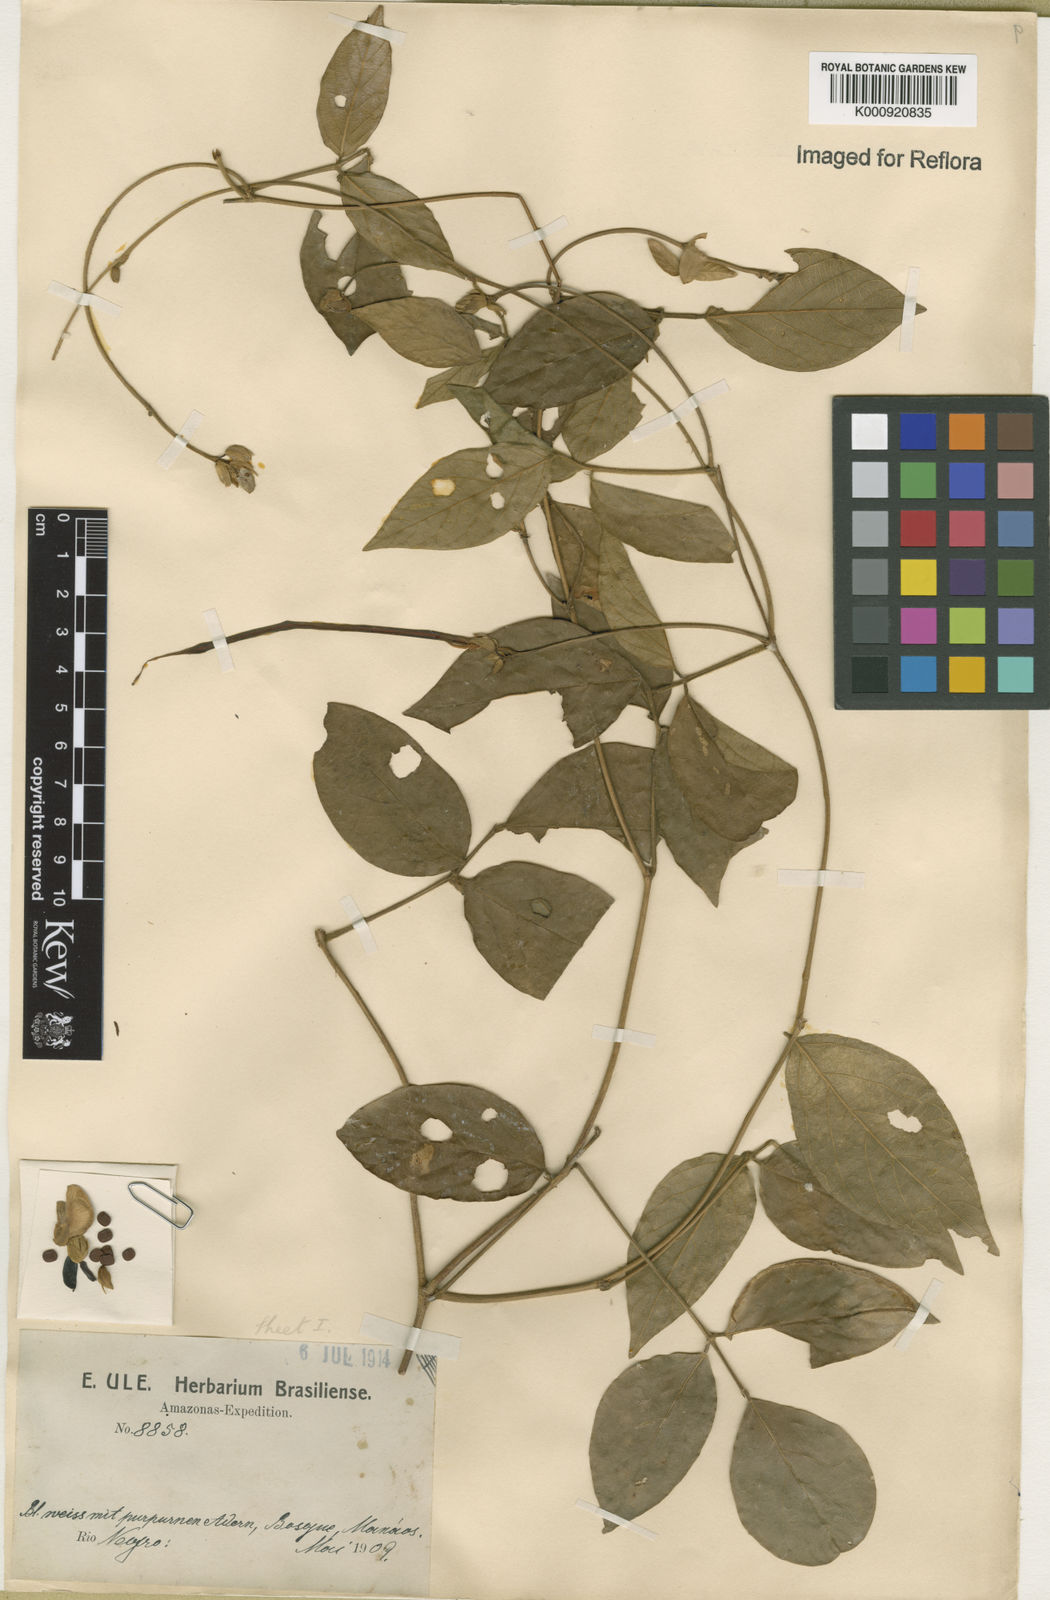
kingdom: Plantae
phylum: Tracheophyta
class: Magnoliopsida
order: Fabales
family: Fabaceae
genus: Centrosema
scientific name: Centrosema pubescens
